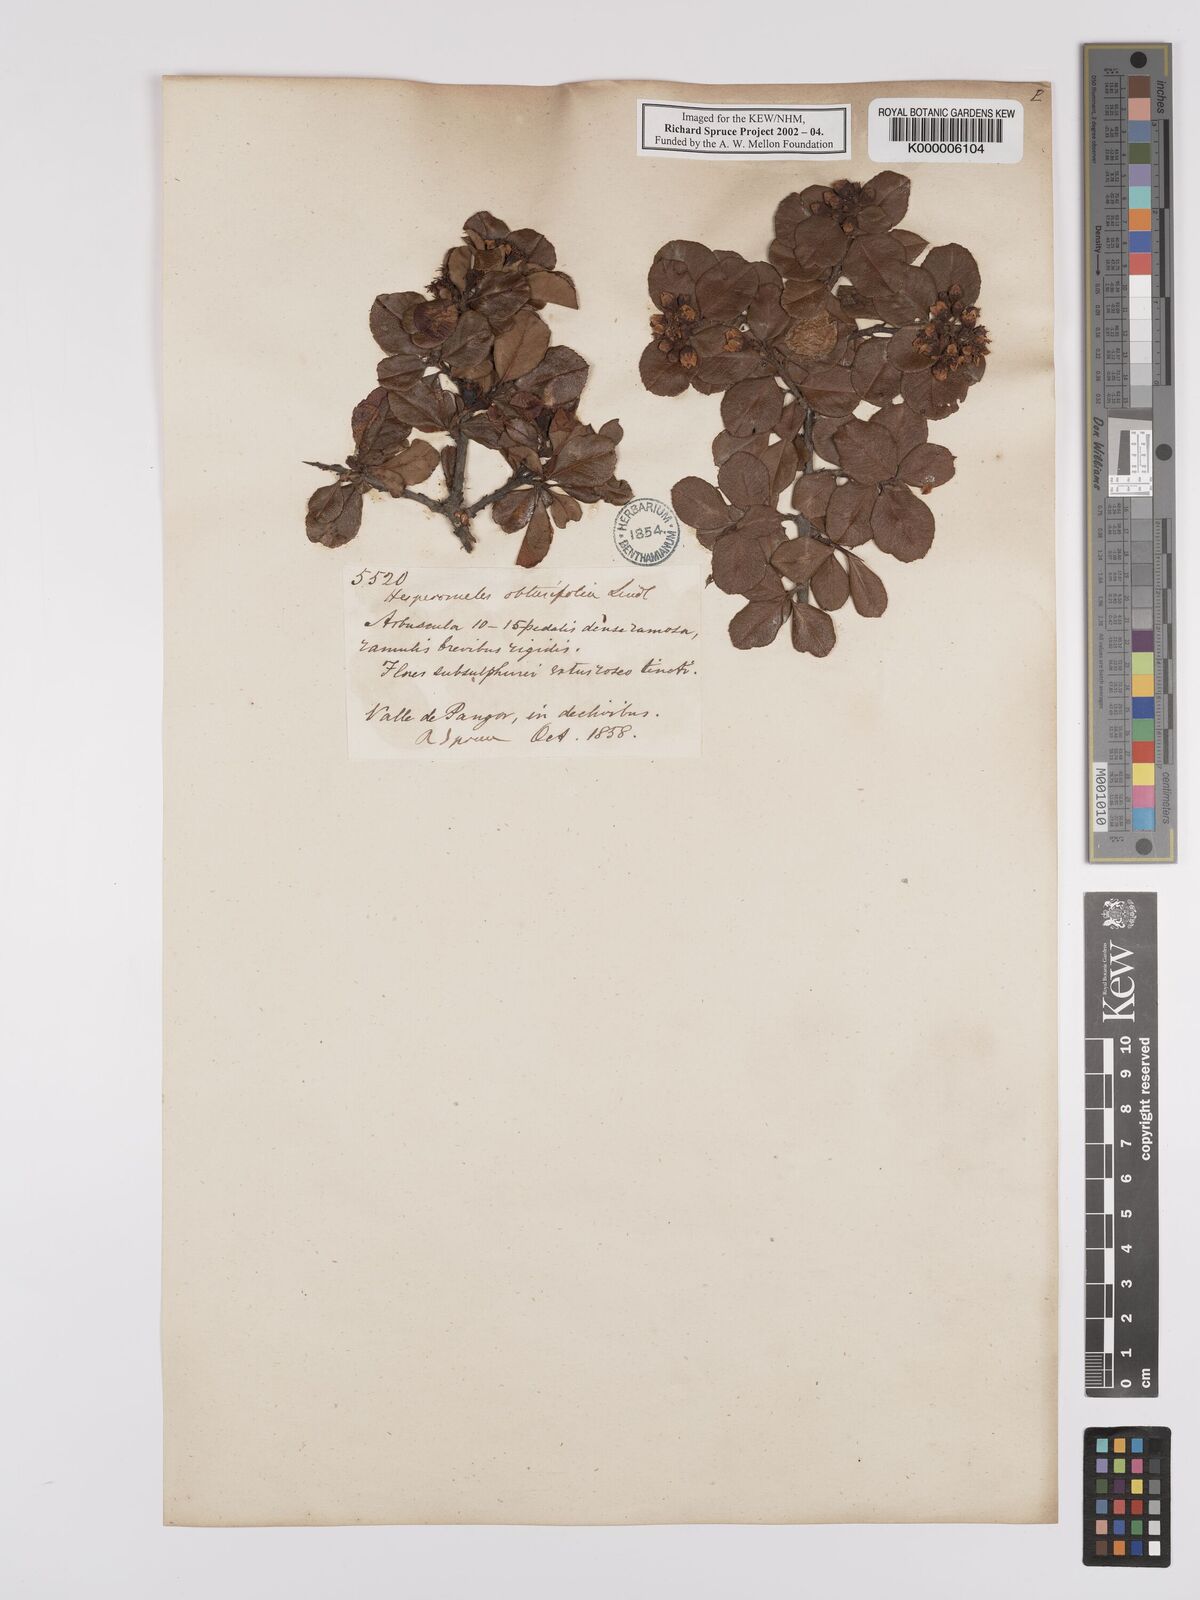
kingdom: Plantae
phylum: Tracheophyta
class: Magnoliopsida
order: Rosales
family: Rosaceae
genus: Hesperomeles
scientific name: Hesperomeles obtusifolia
